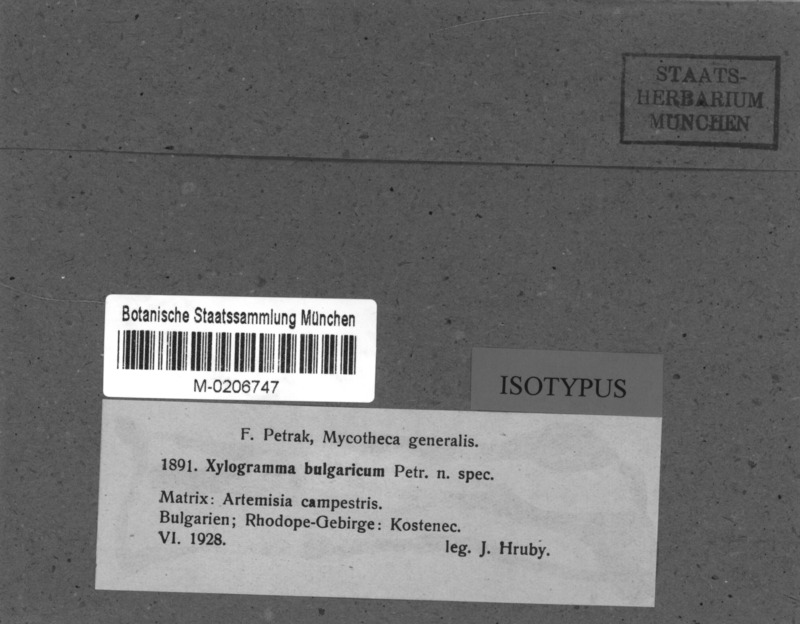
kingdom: Fungi
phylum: Ascomycota
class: Leotiomycetes
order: Helotiales
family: Helotiaceae
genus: Xylogramma
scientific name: Xylogramma bulgaricum
